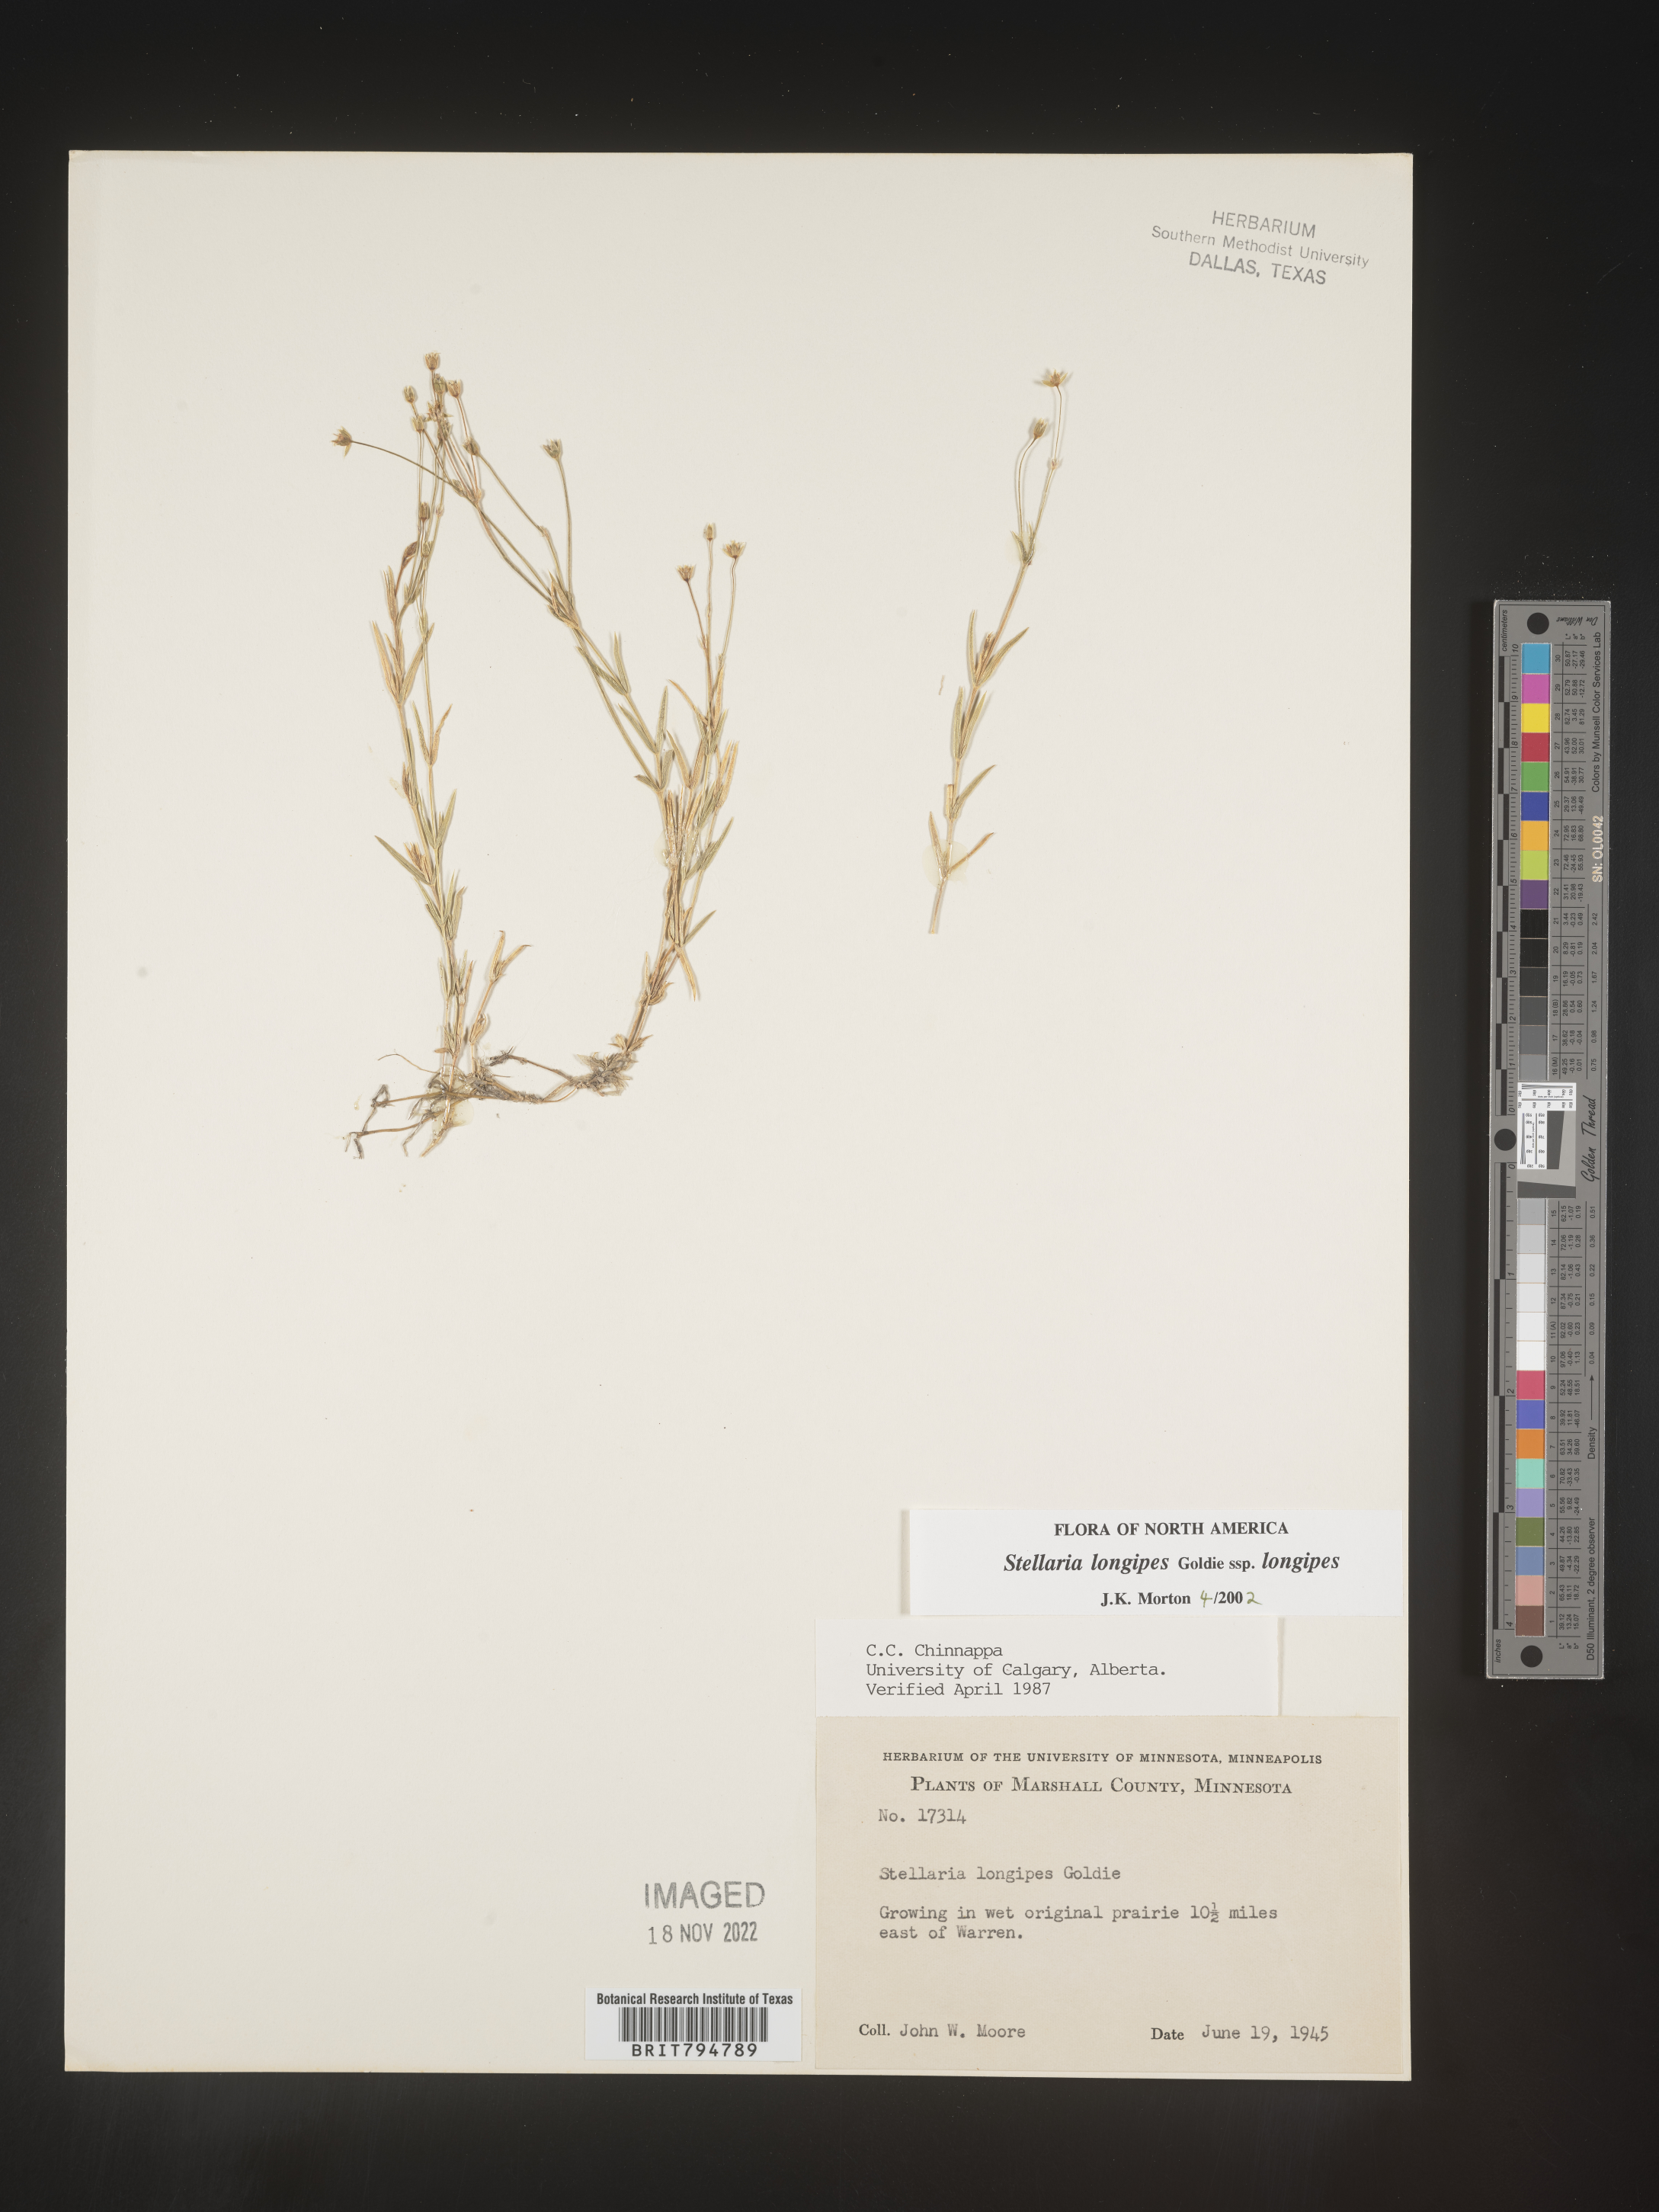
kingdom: Plantae
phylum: Tracheophyta
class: Magnoliopsida
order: Caryophyllales
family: Caryophyllaceae
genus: Stellaria
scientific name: Stellaria longipes
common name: Goldie's starwort
